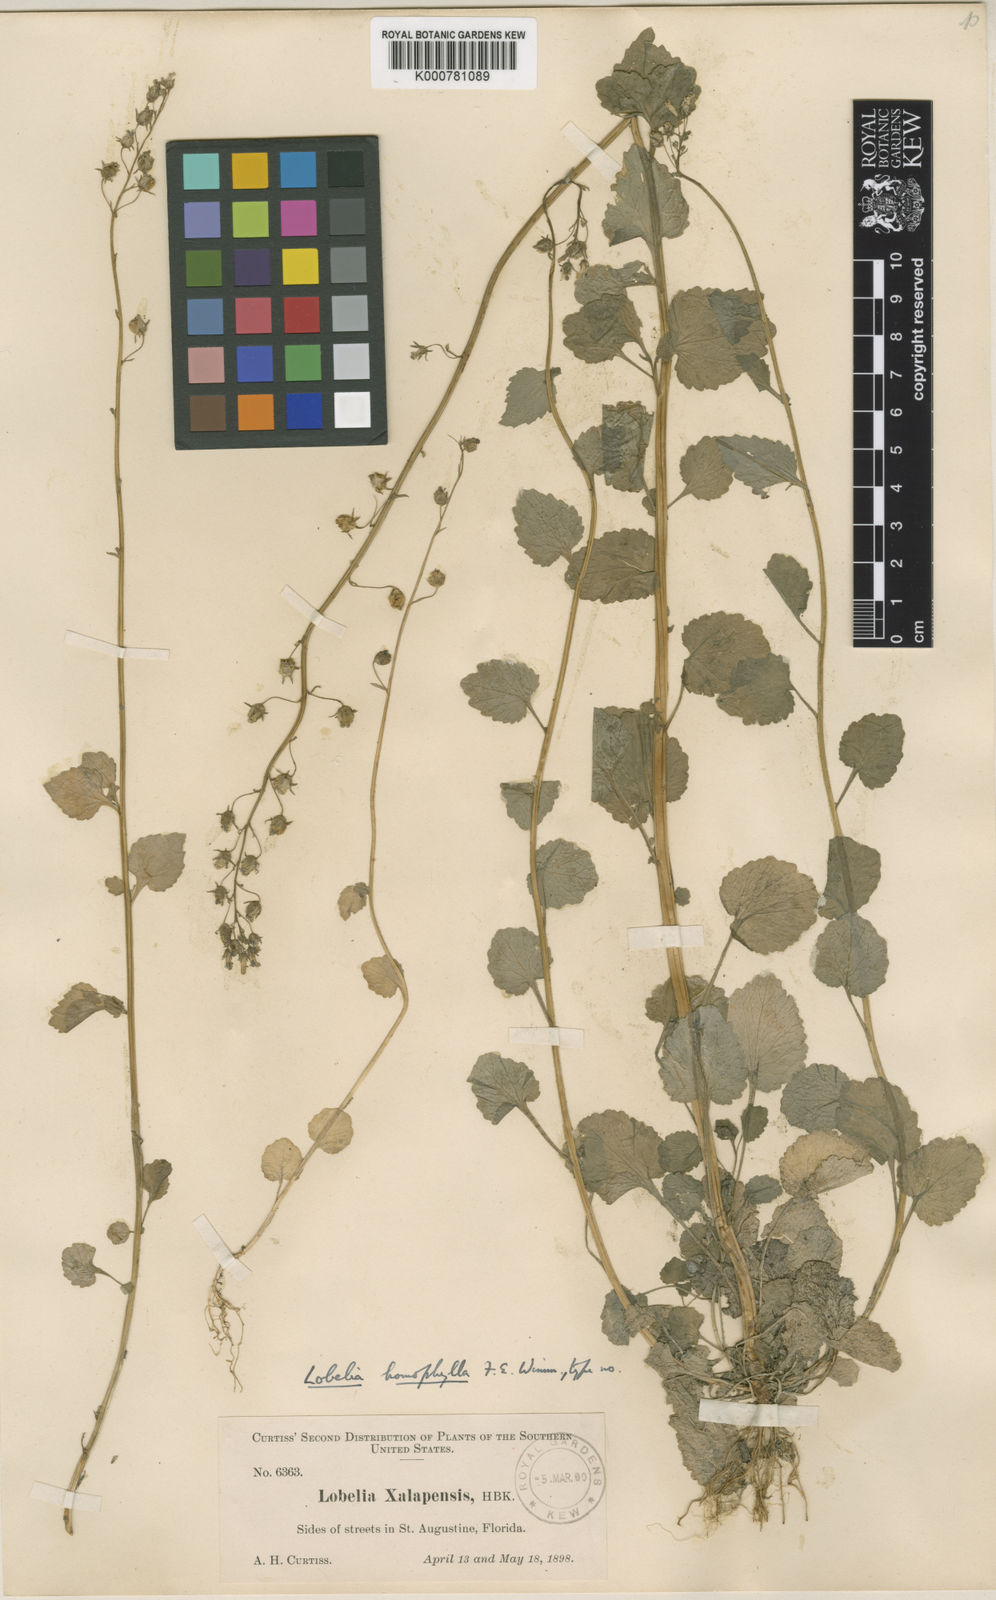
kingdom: Plantae
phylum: Tracheophyta
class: Magnoliopsida
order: Asterales
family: Campanulaceae
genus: Lobelia
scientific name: Lobelia homophylla
